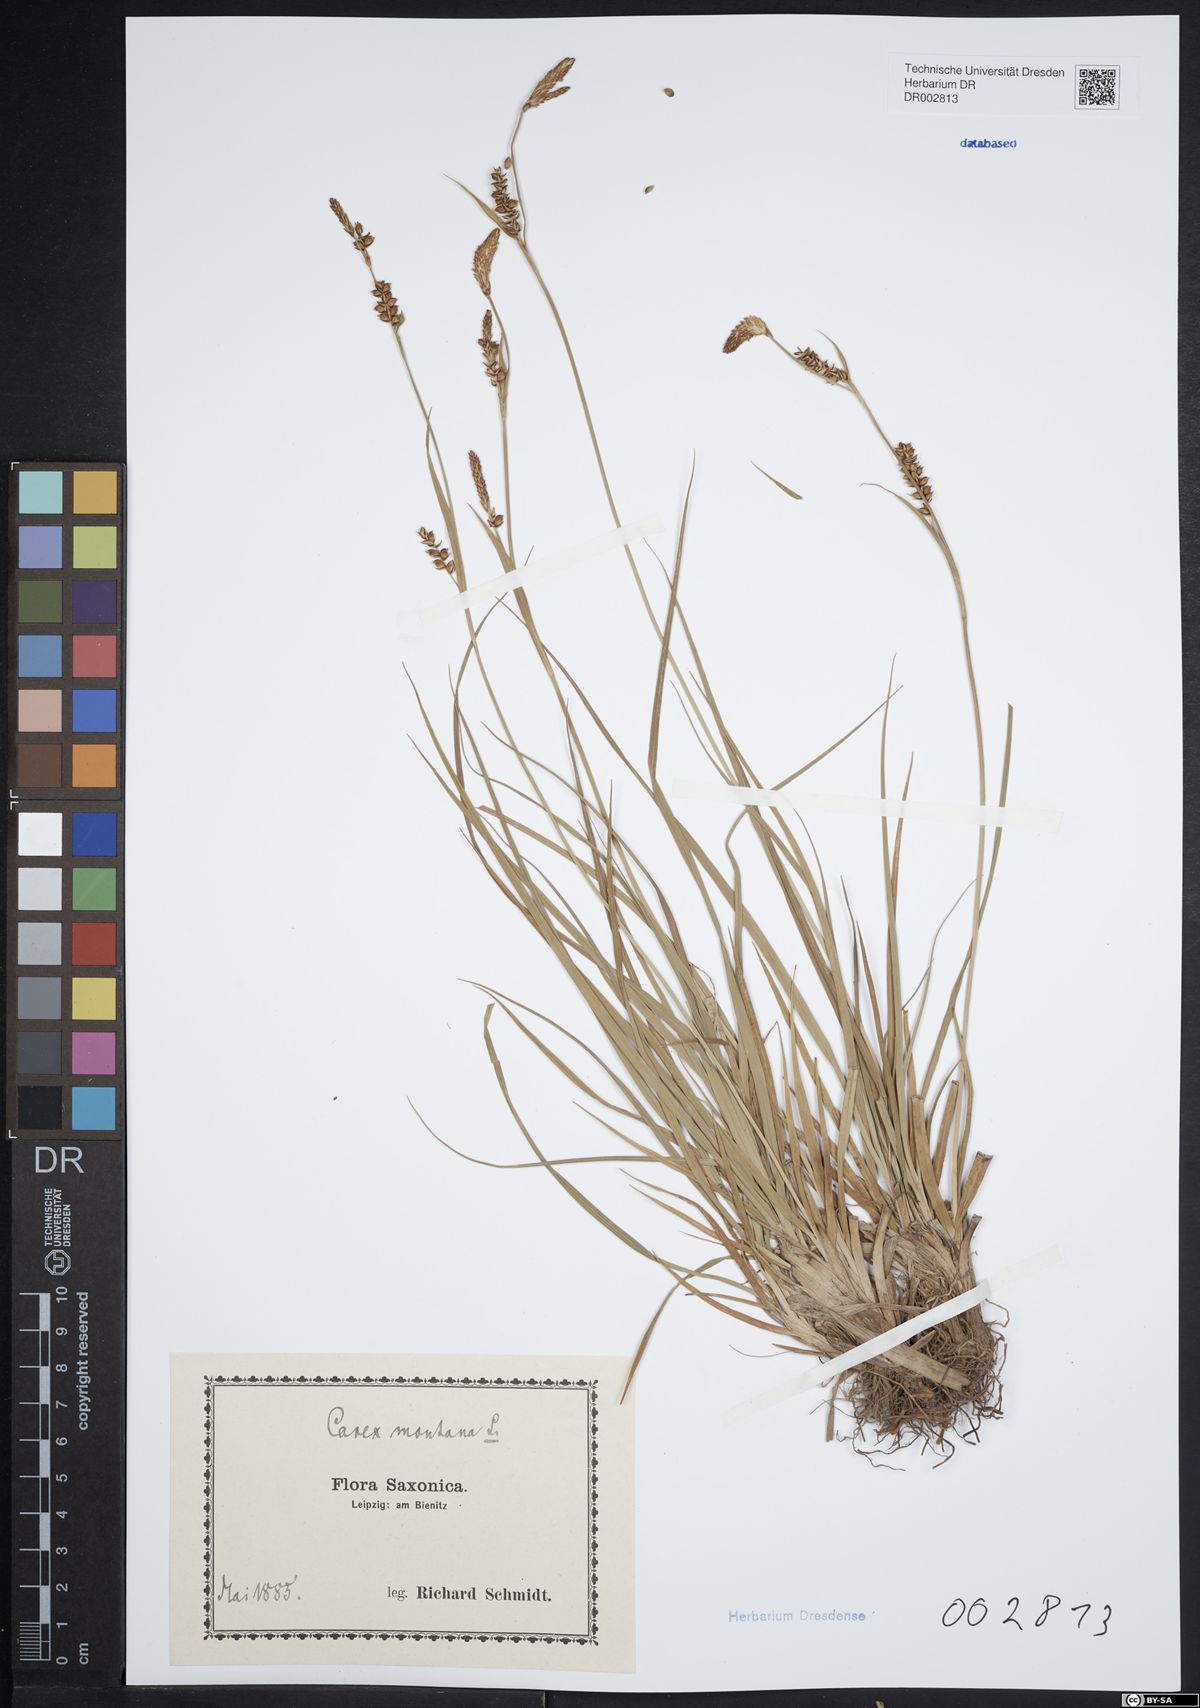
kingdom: Plantae
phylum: Tracheophyta
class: Liliopsida
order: Poales
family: Cyperaceae
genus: Carex
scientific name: Carex panicea
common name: Carnation sedge
